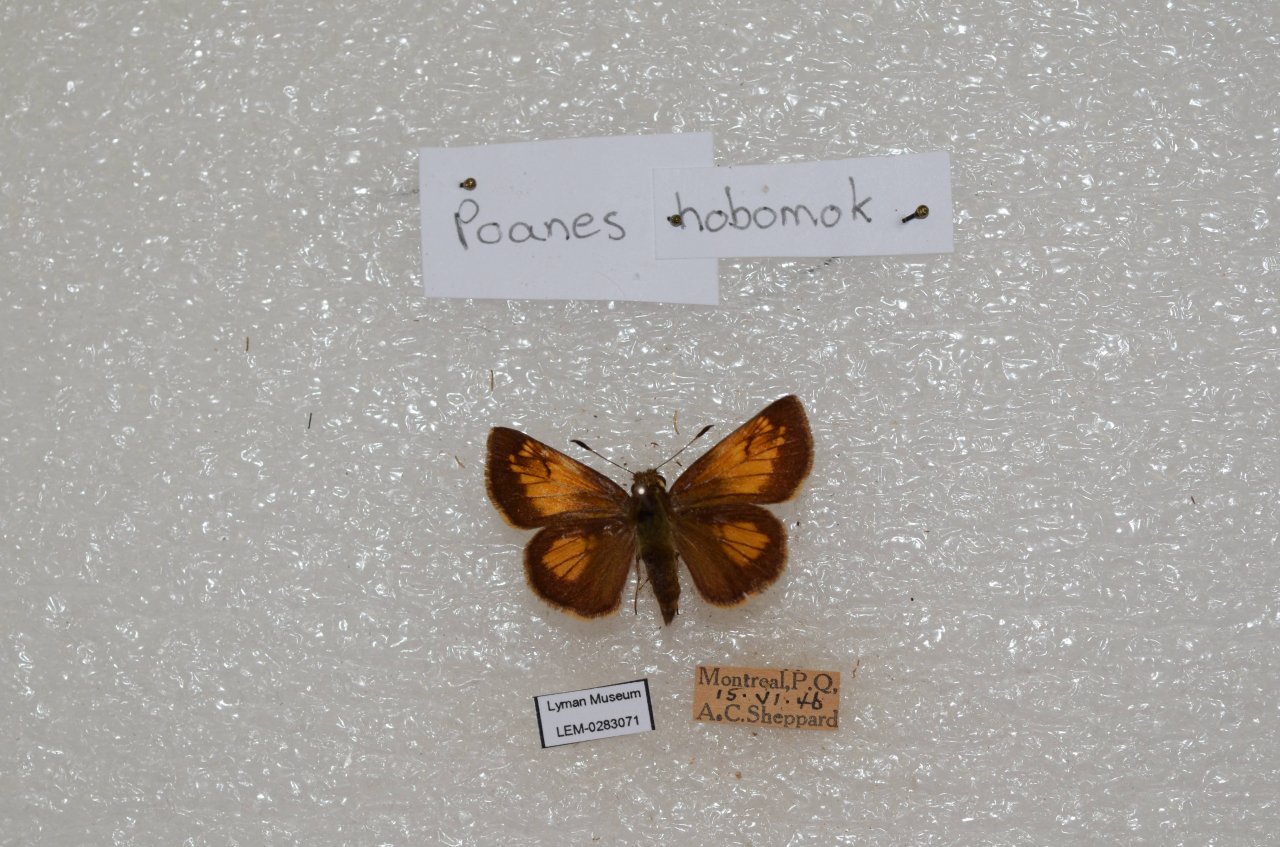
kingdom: Animalia
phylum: Arthropoda
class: Insecta
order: Lepidoptera
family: Hesperiidae
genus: Lon
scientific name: Lon hobomok
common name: Hobomok Skipper
